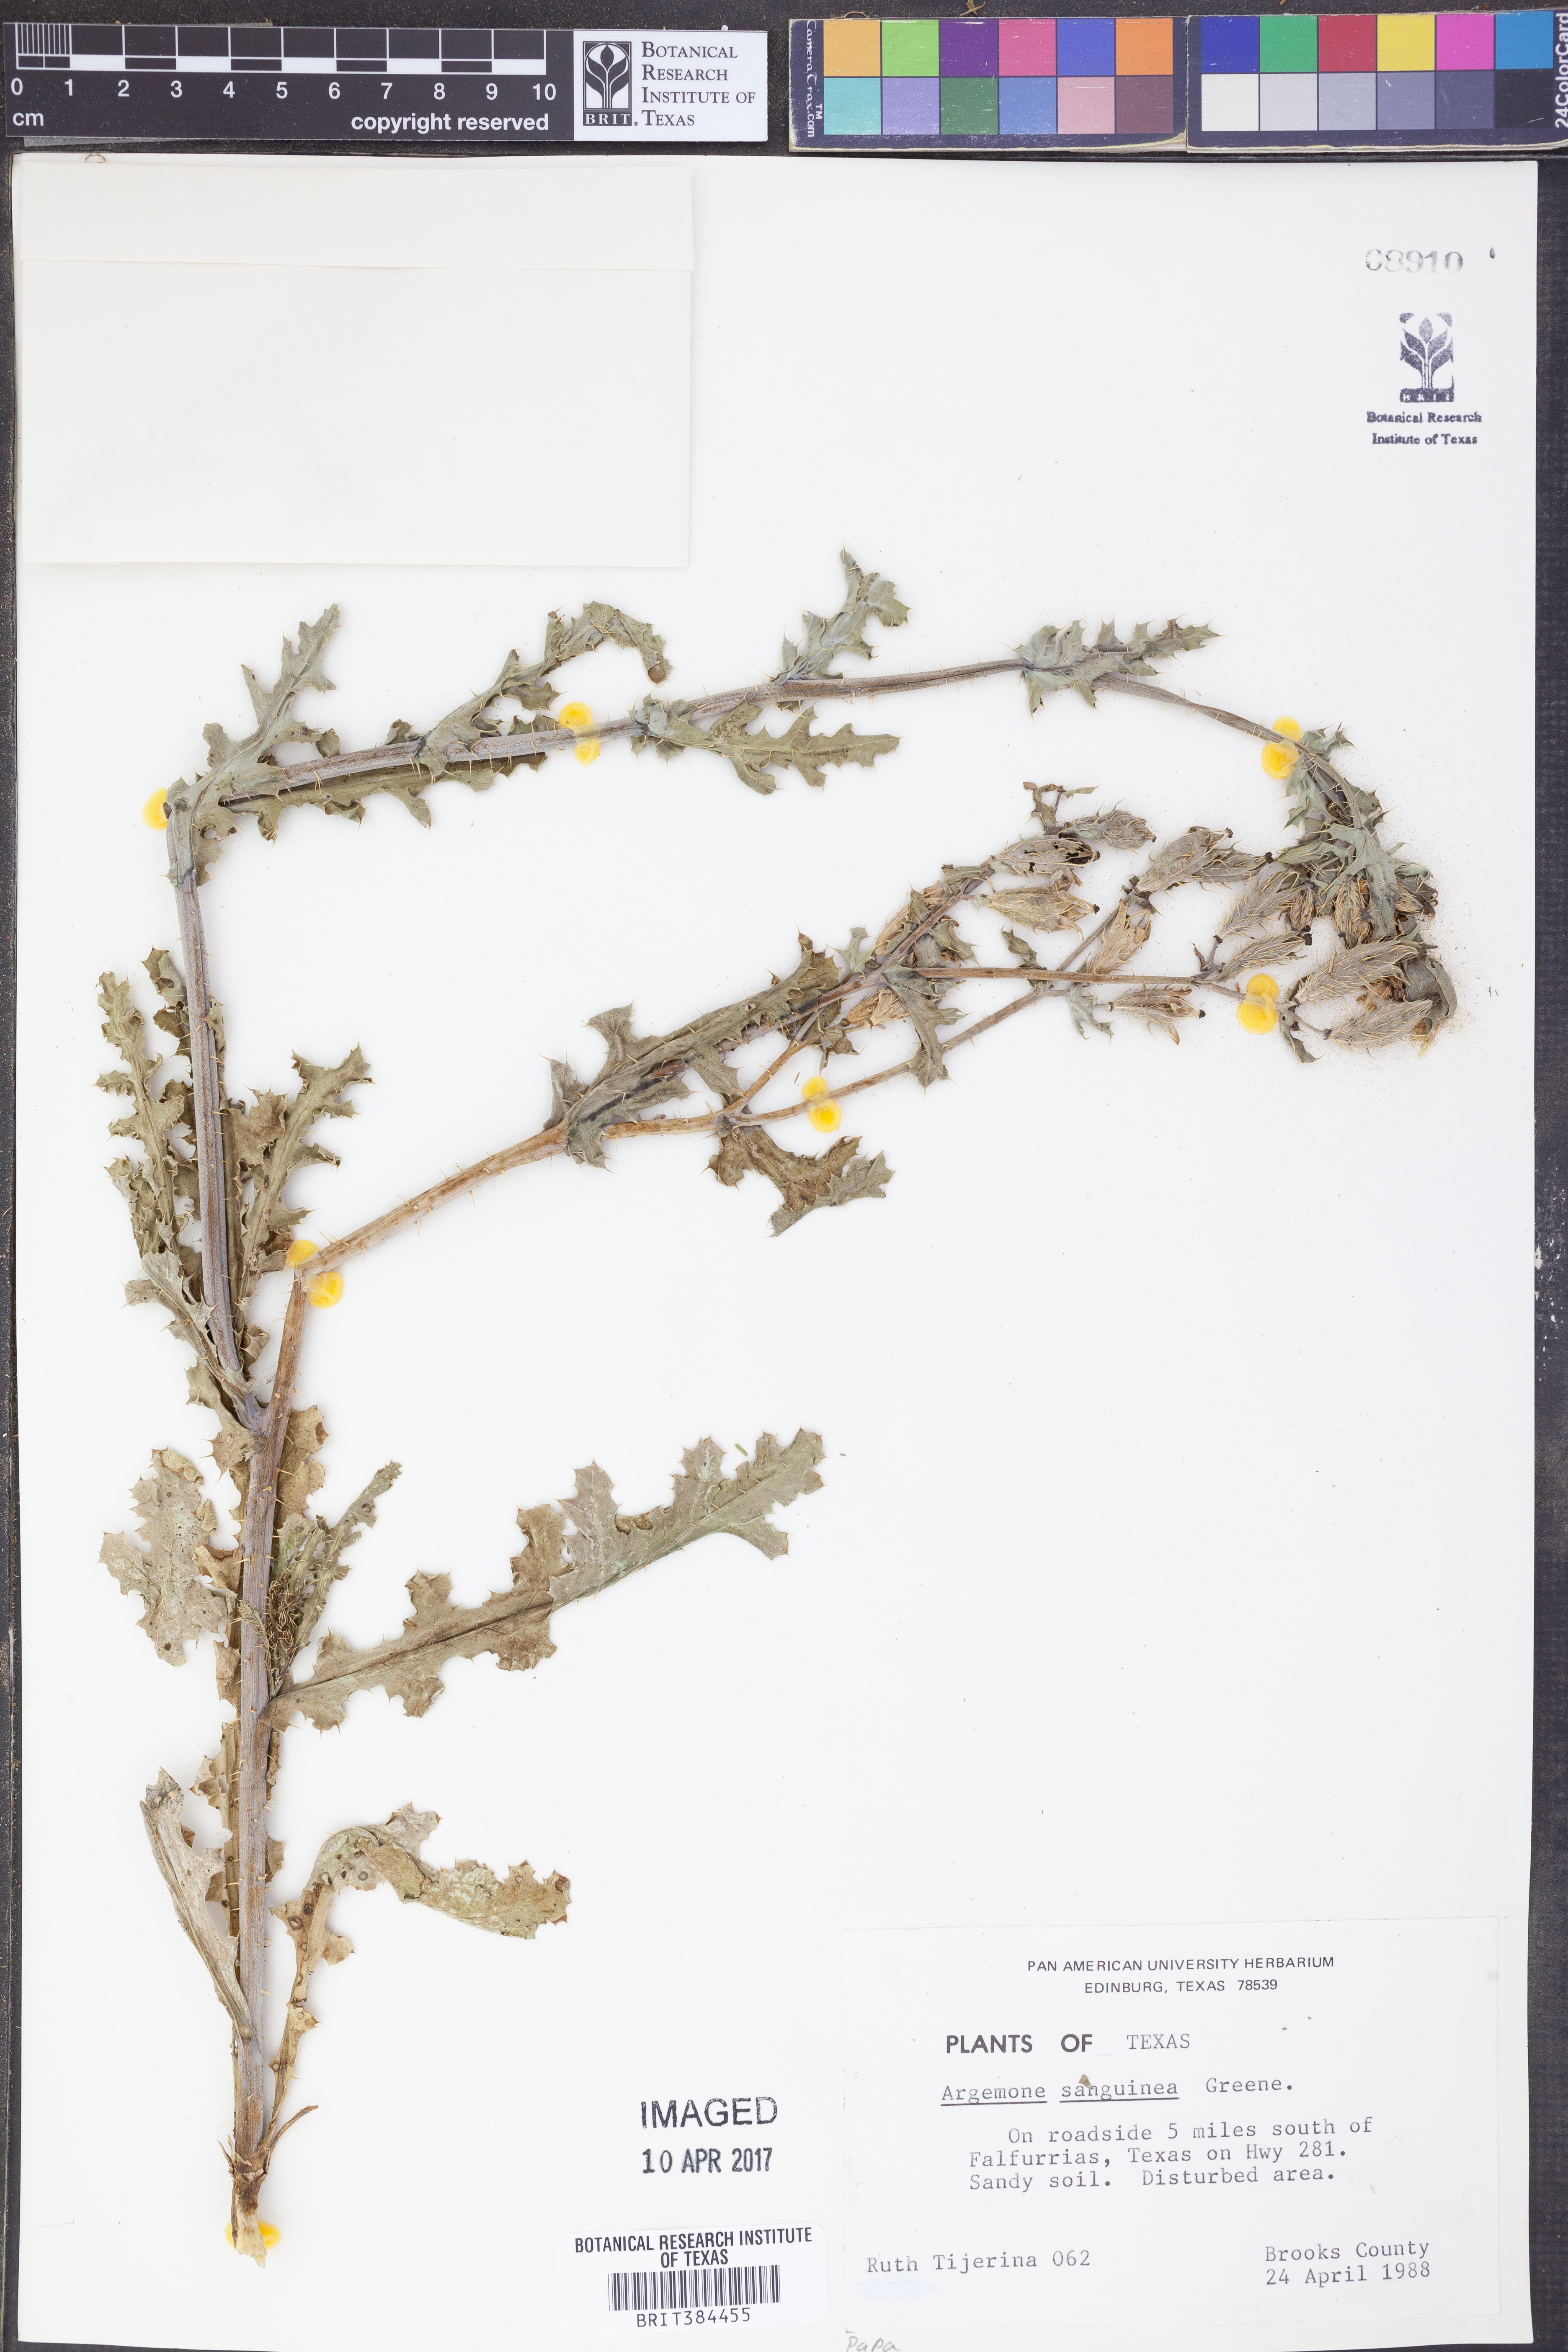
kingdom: Plantae
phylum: Tracheophyta
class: Magnoliopsida
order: Ranunculales
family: Papaveraceae
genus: Argemone
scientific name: Argemone sanguinea
